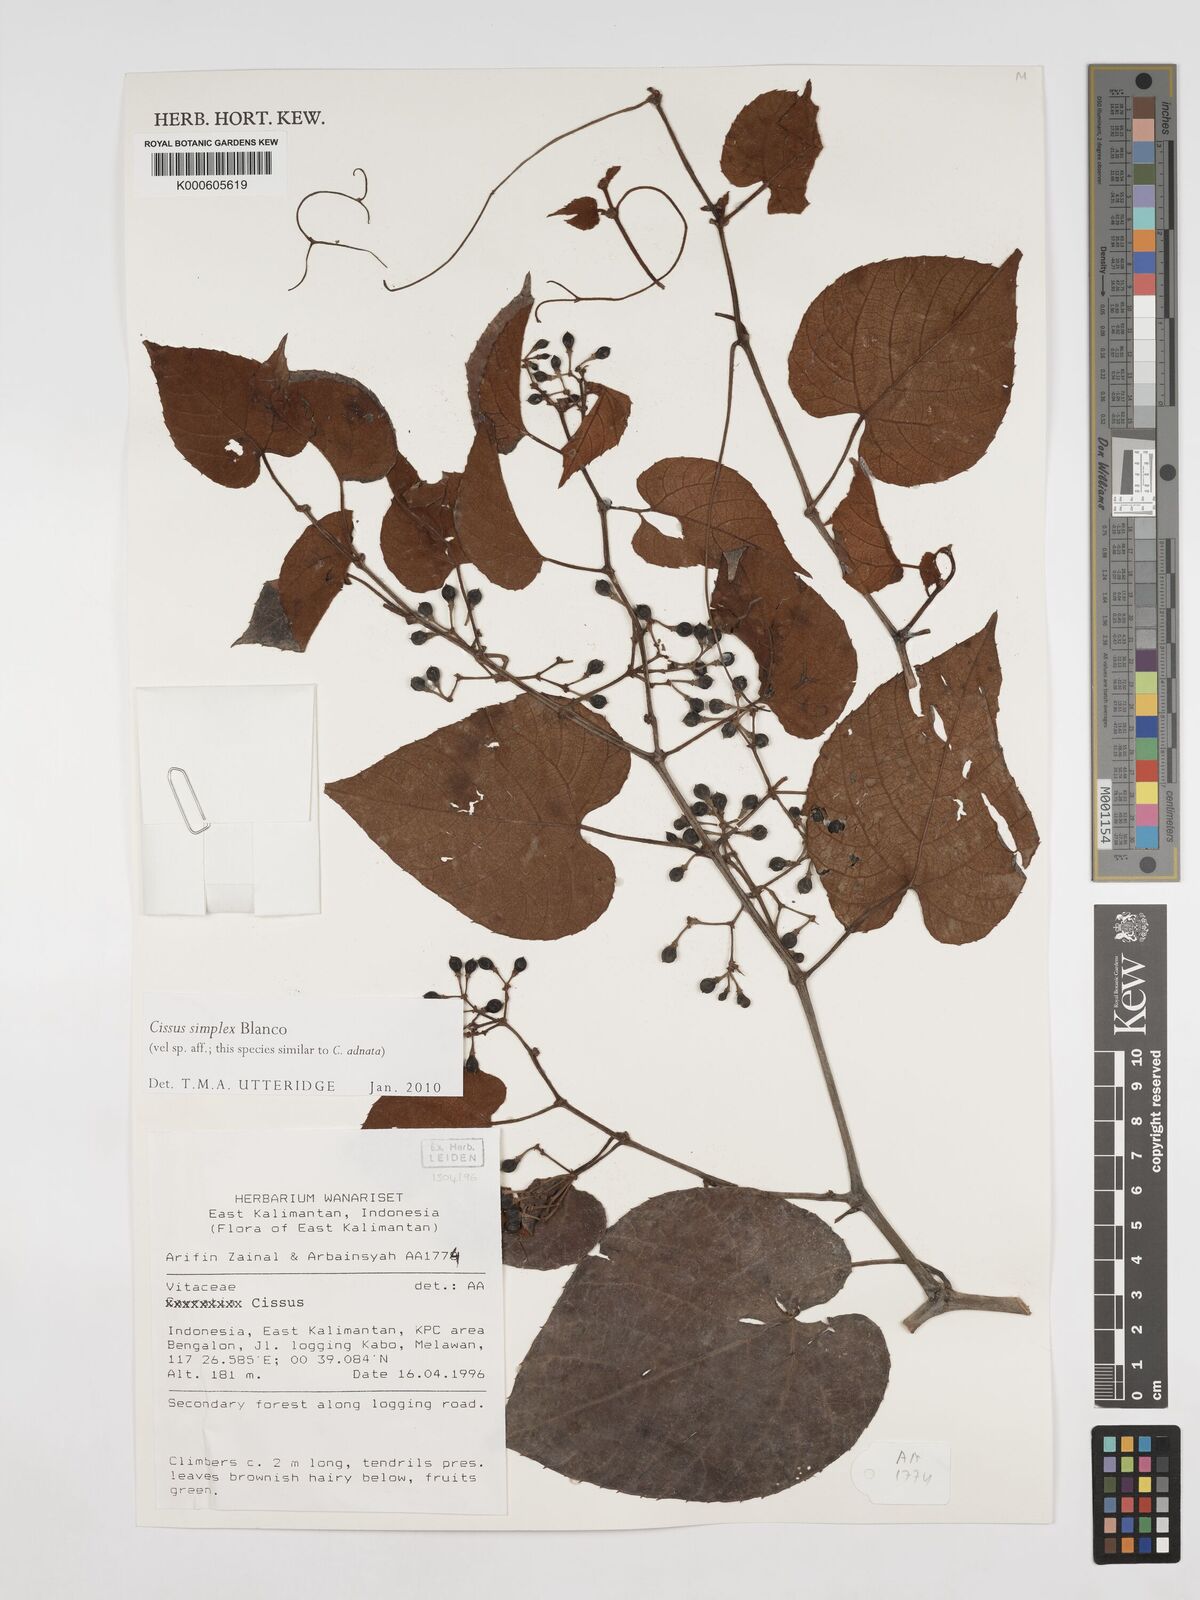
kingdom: Plantae
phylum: Tracheophyta
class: Magnoliopsida
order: Vitales
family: Vitaceae
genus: Cissus
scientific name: Cissus aristata
